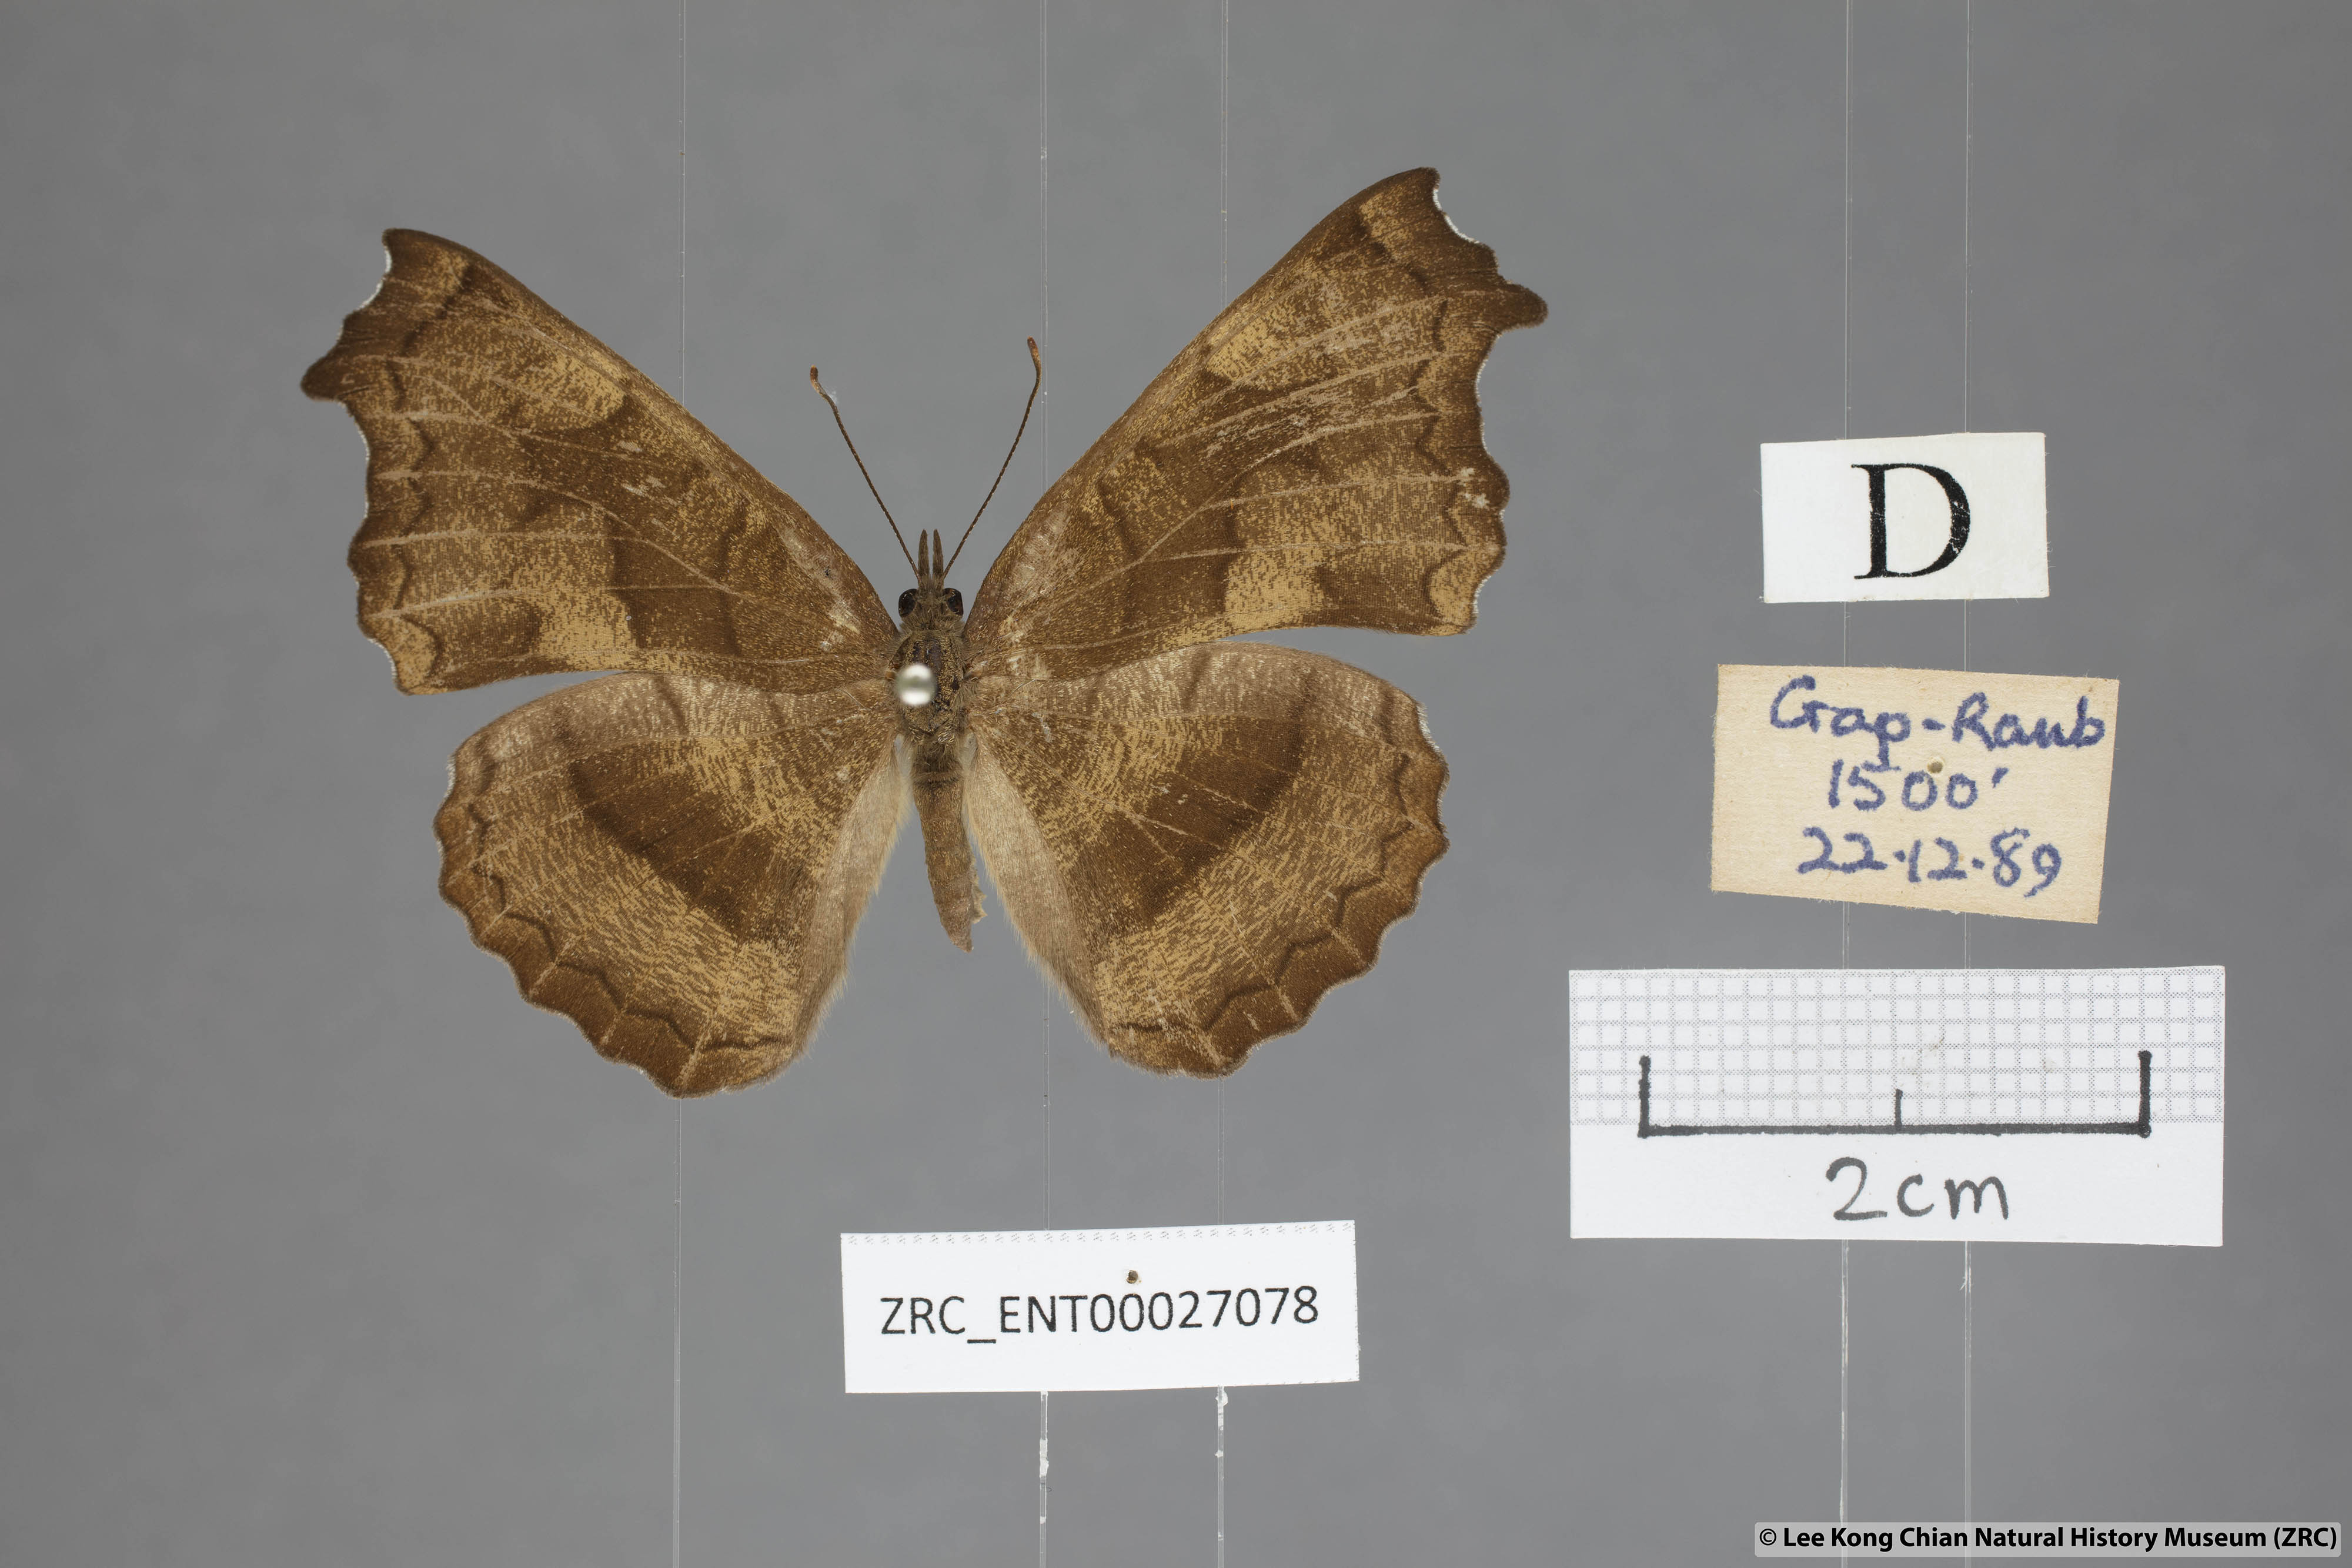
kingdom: Animalia
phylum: Arthropoda
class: Insecta
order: Lepidoptera
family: Nymphalidae
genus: Laringa
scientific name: Laringa castelnaui
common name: Blue dandy
